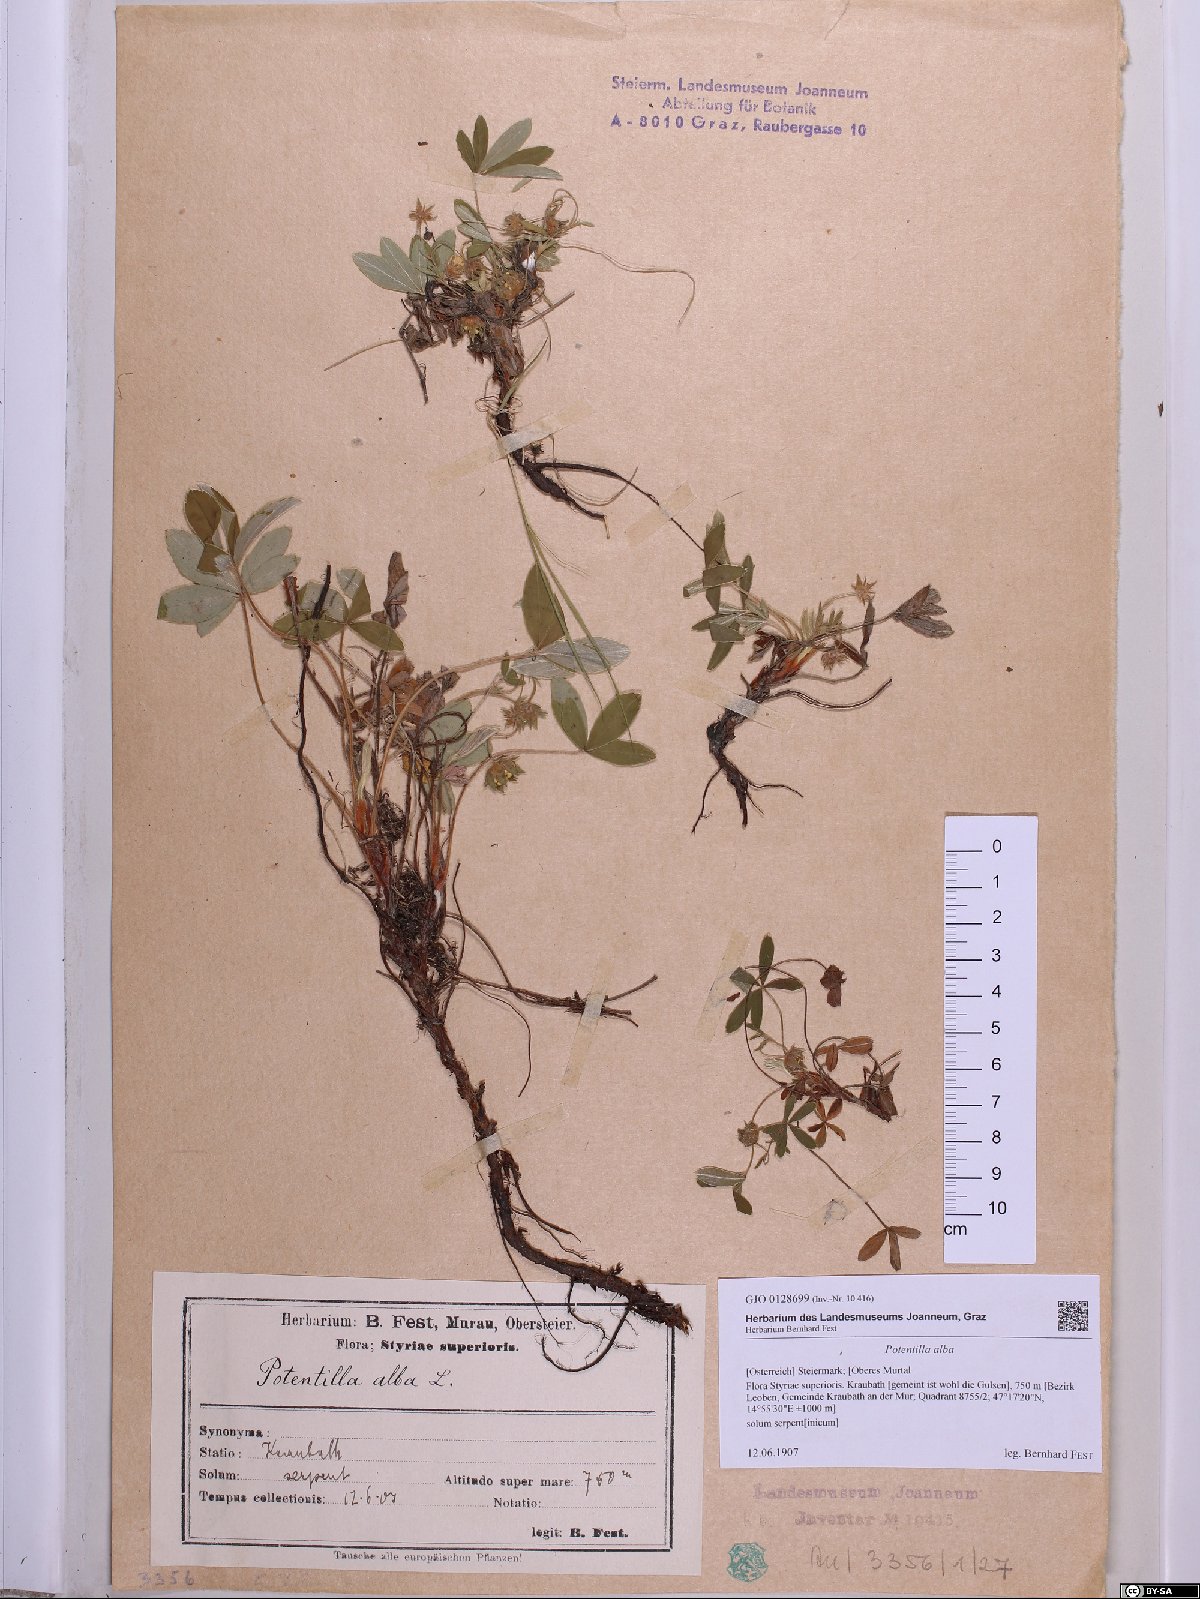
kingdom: Plantae
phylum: Tracheophyta
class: Magnoliopsida
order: Rosales
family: Rosaceae
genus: Potentilla
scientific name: Potentilla alba
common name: White cinquefoil
